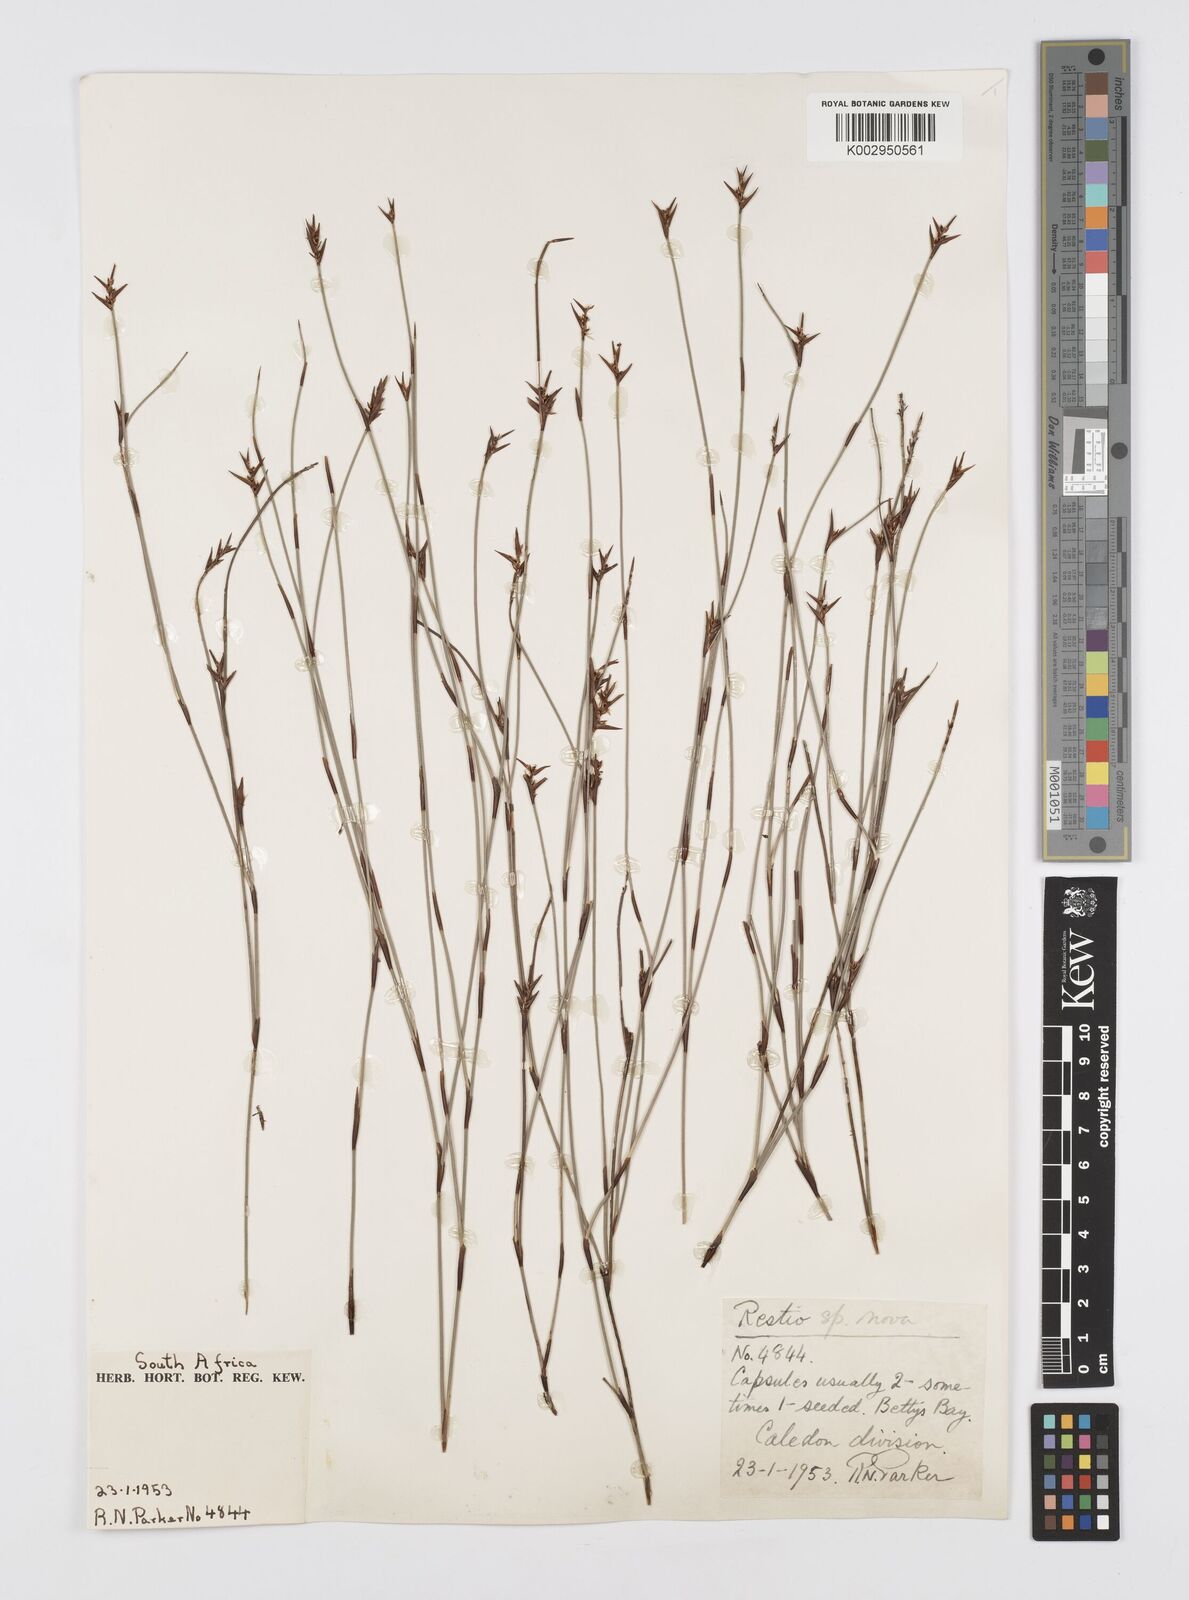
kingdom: Plantae
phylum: Tracheophyta
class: Liliopsida
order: Poales
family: Restionaceae
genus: Soroveta
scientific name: Soroveta ambigua
